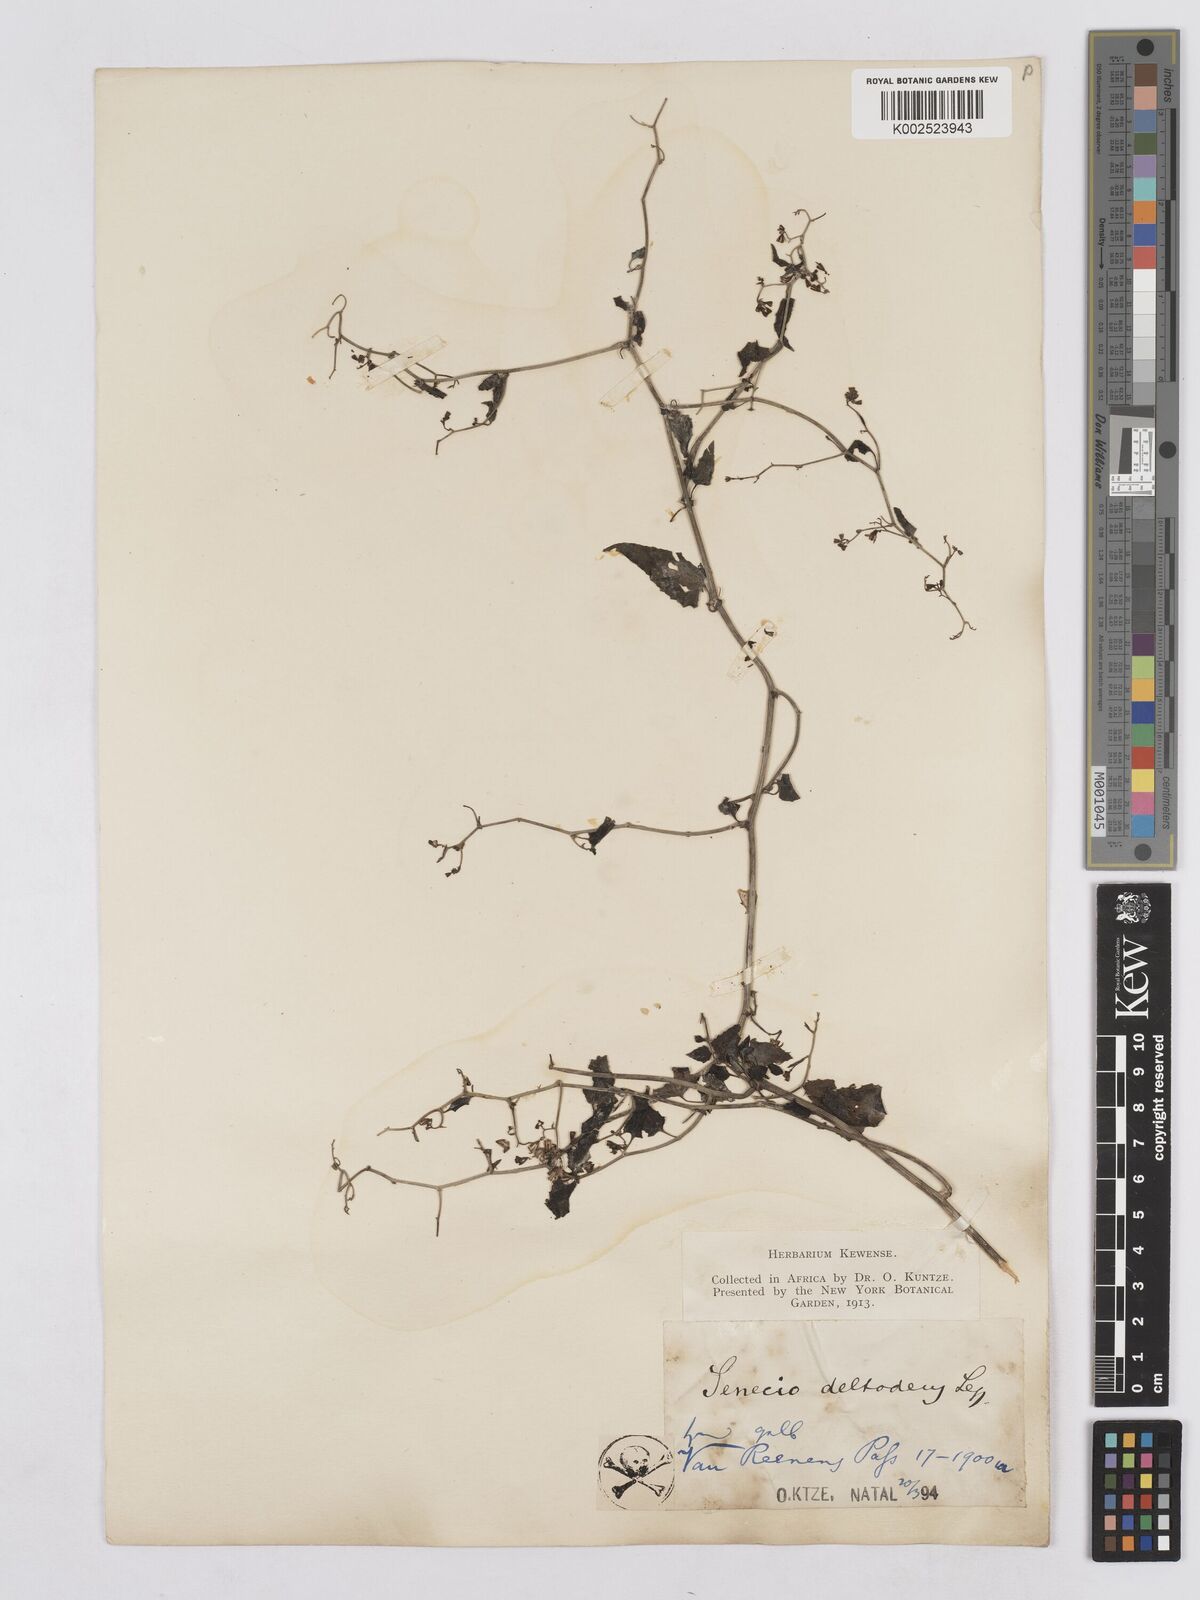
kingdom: Plantae
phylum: Tracheophyta
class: Magnoliopsida
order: Asterales
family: Asteraceae
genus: Senecio
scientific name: Senecio deltoideus
